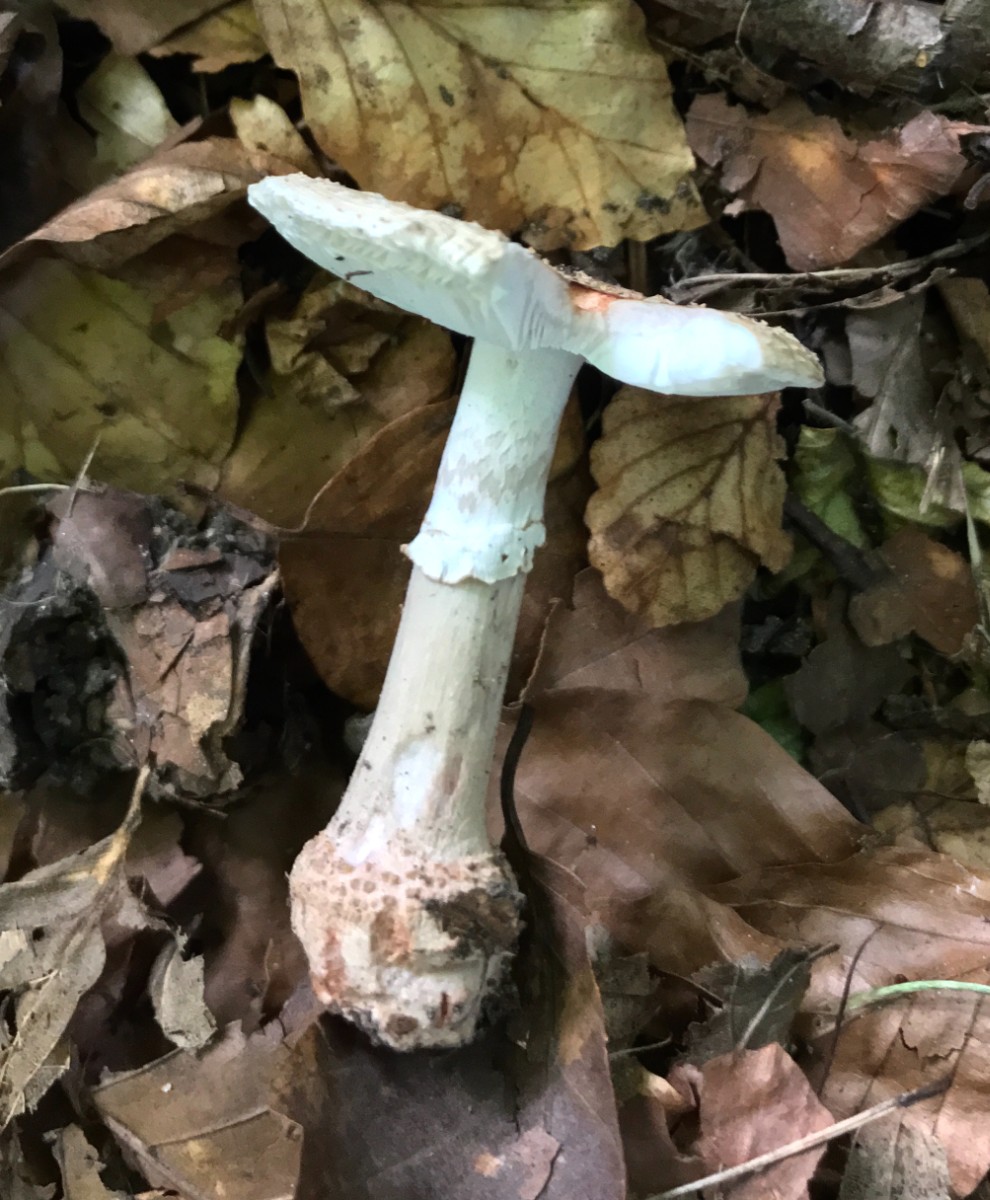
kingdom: Fungi
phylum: Basidiomycota
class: Agaricomycetes
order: Agaricales
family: Amanitaceae
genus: Amanita
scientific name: Amanita rubescens
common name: rødmende fluesvamp
